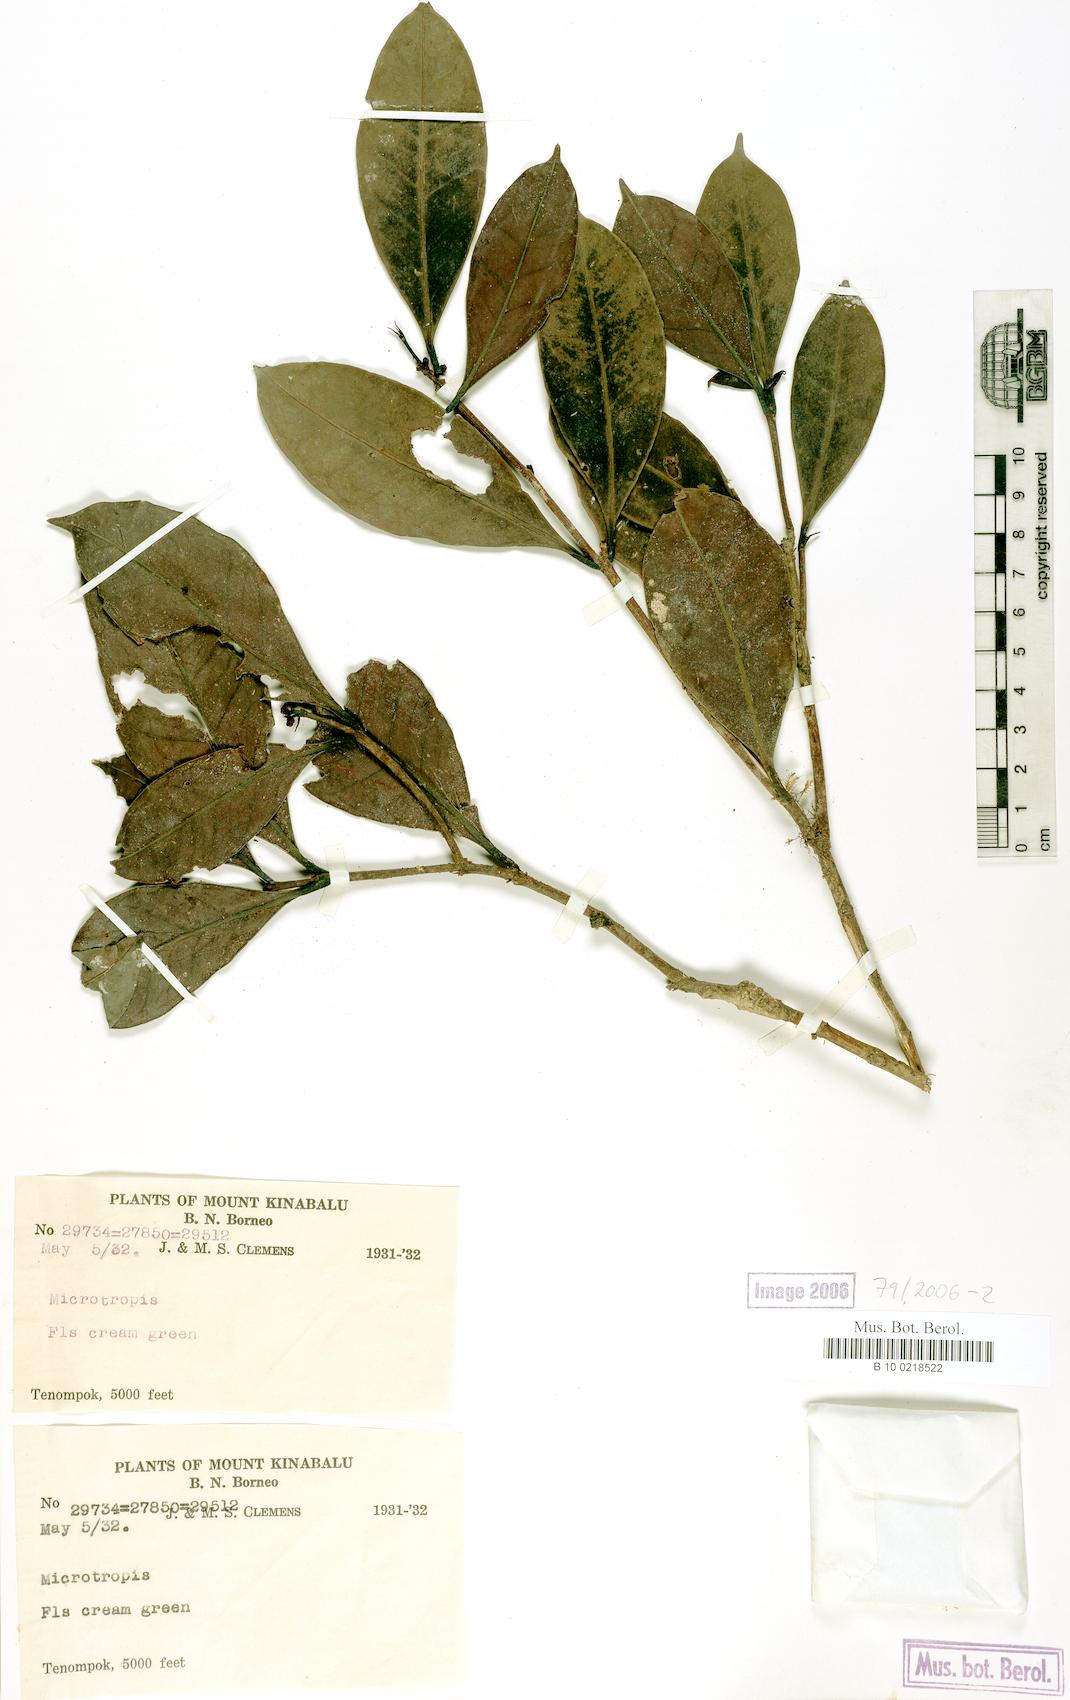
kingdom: Plantae
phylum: Tracheophyta
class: Magnoliopsida
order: Celastrales
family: Celastraceae
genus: Microtropis
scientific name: Microtropis
